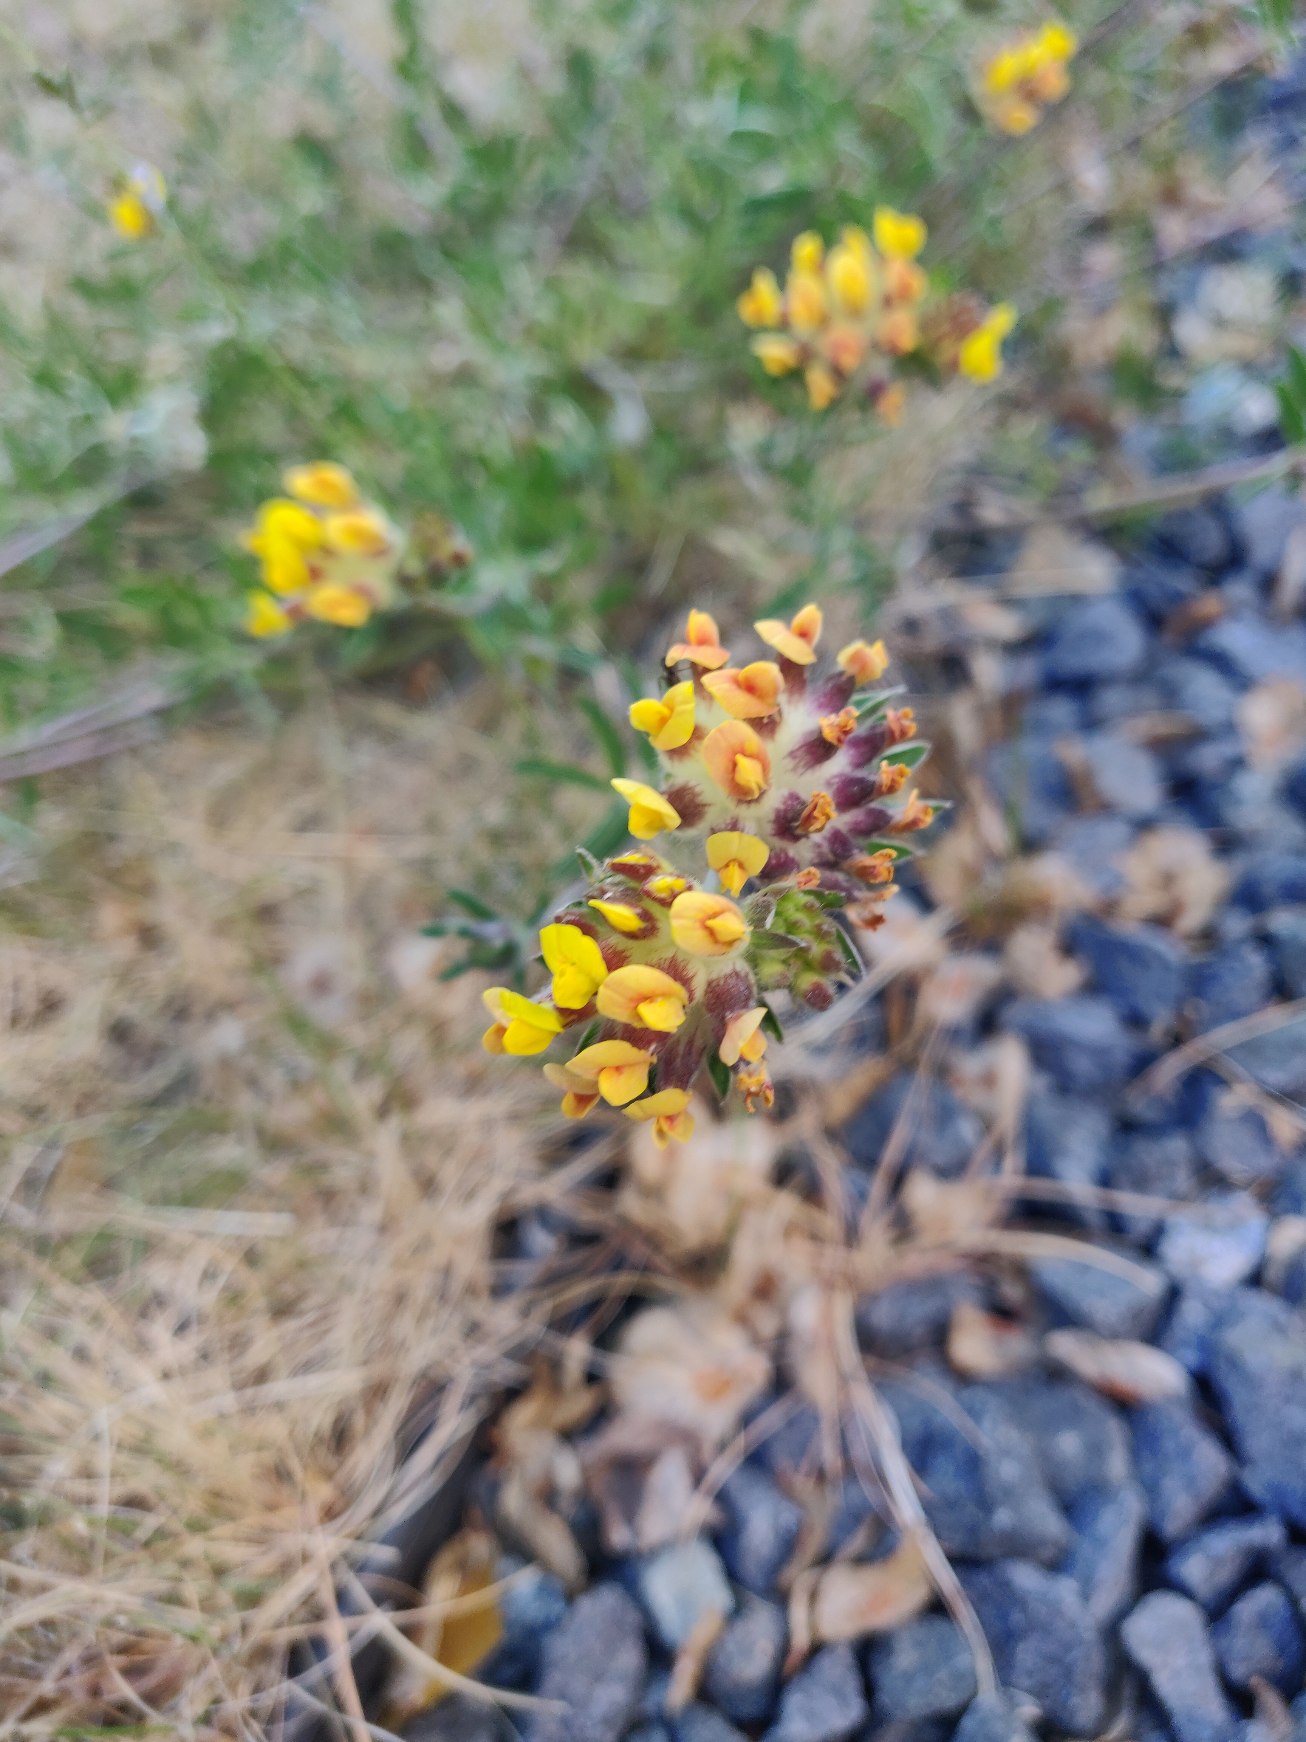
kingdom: Plantae
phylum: Tracheophyta
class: Magnoliopsida
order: Fabales
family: Fabaceae
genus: Anthyllis
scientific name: Anthyllis vulneraria
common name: Rundbælg
